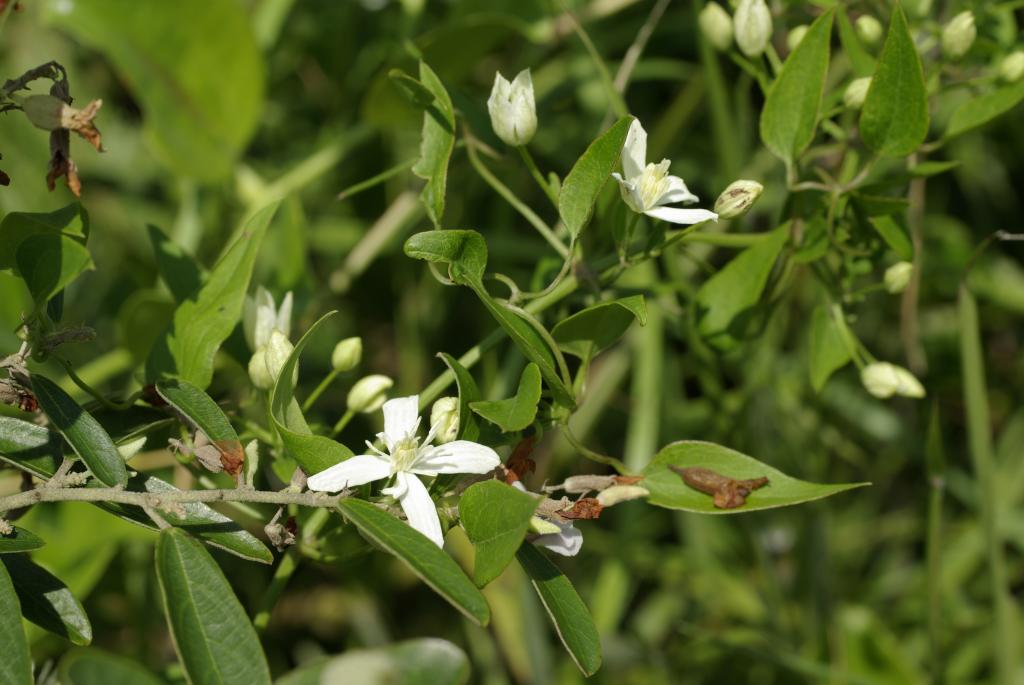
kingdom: Plantae
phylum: Tracheophyta
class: Magnoliopsida
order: Ranunculales
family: Ranunculaceae
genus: Clematis
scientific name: Clematis chinensis
